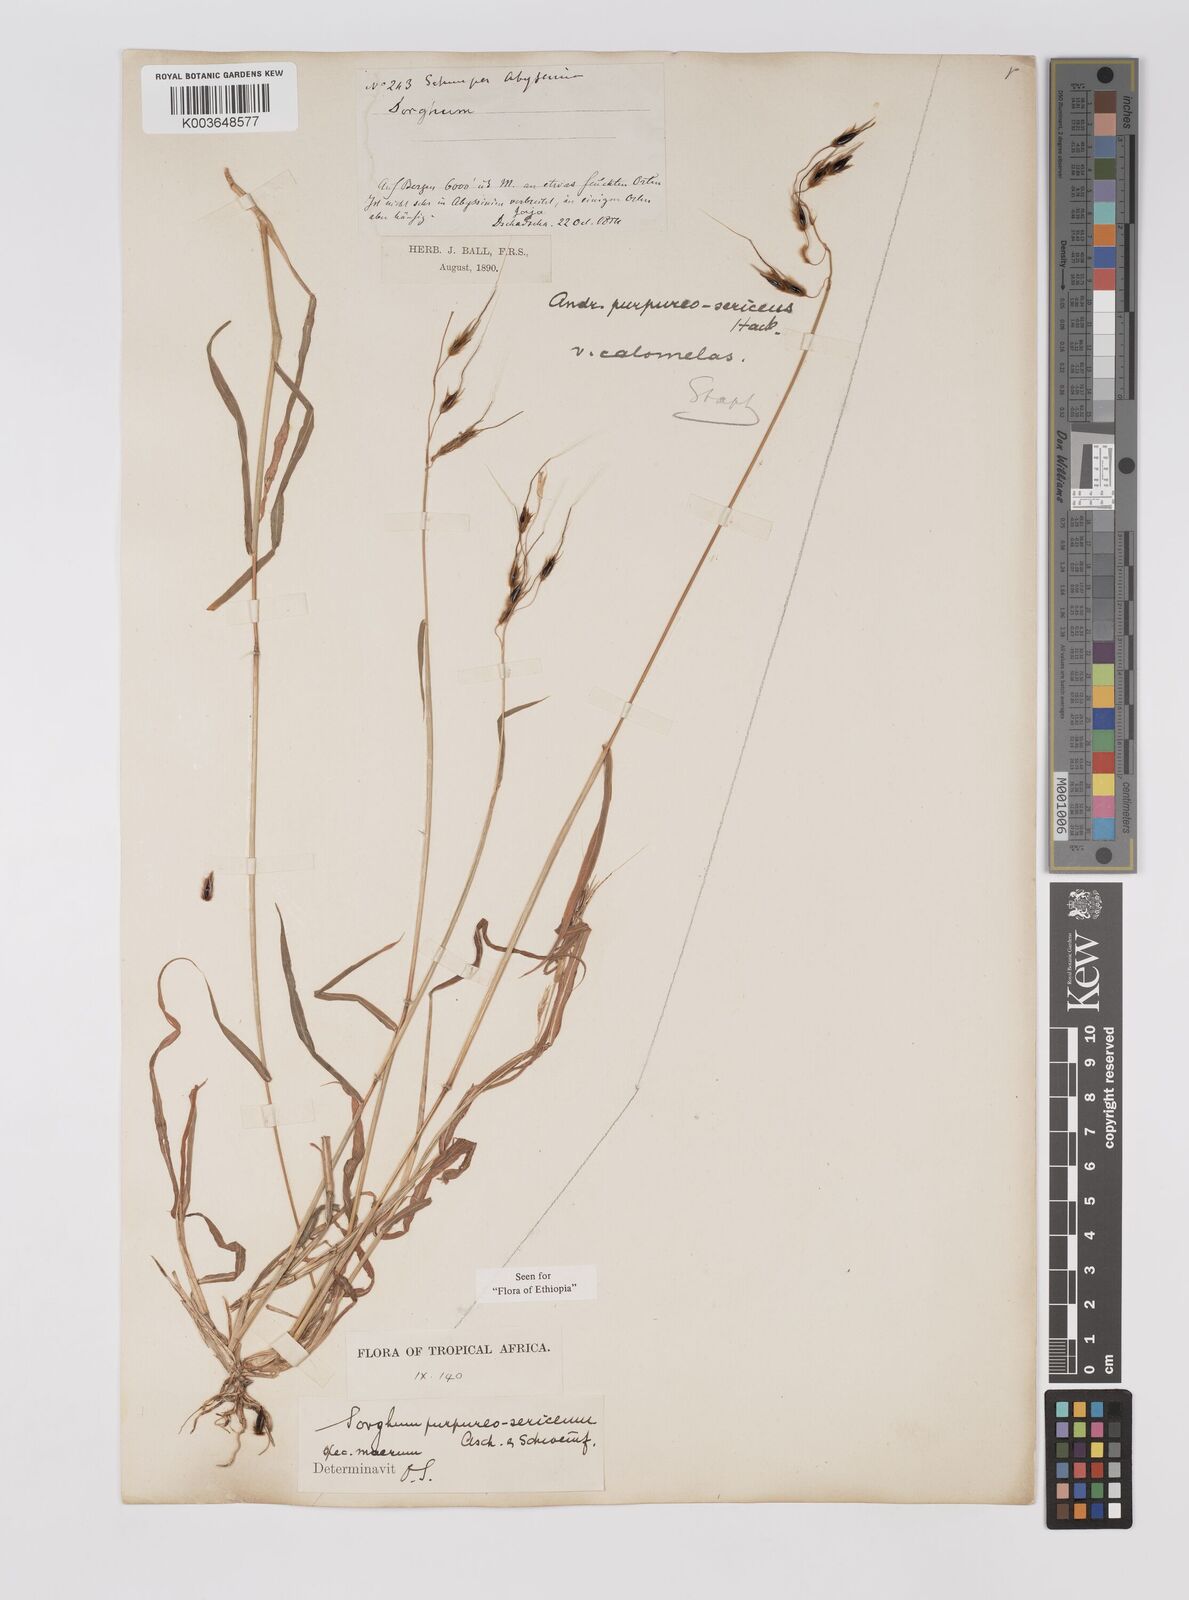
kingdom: Plantae
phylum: Tracheophyta
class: Liliopsida
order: Poales
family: Poaceae
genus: Sarga
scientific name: Sarga purpureosericea
